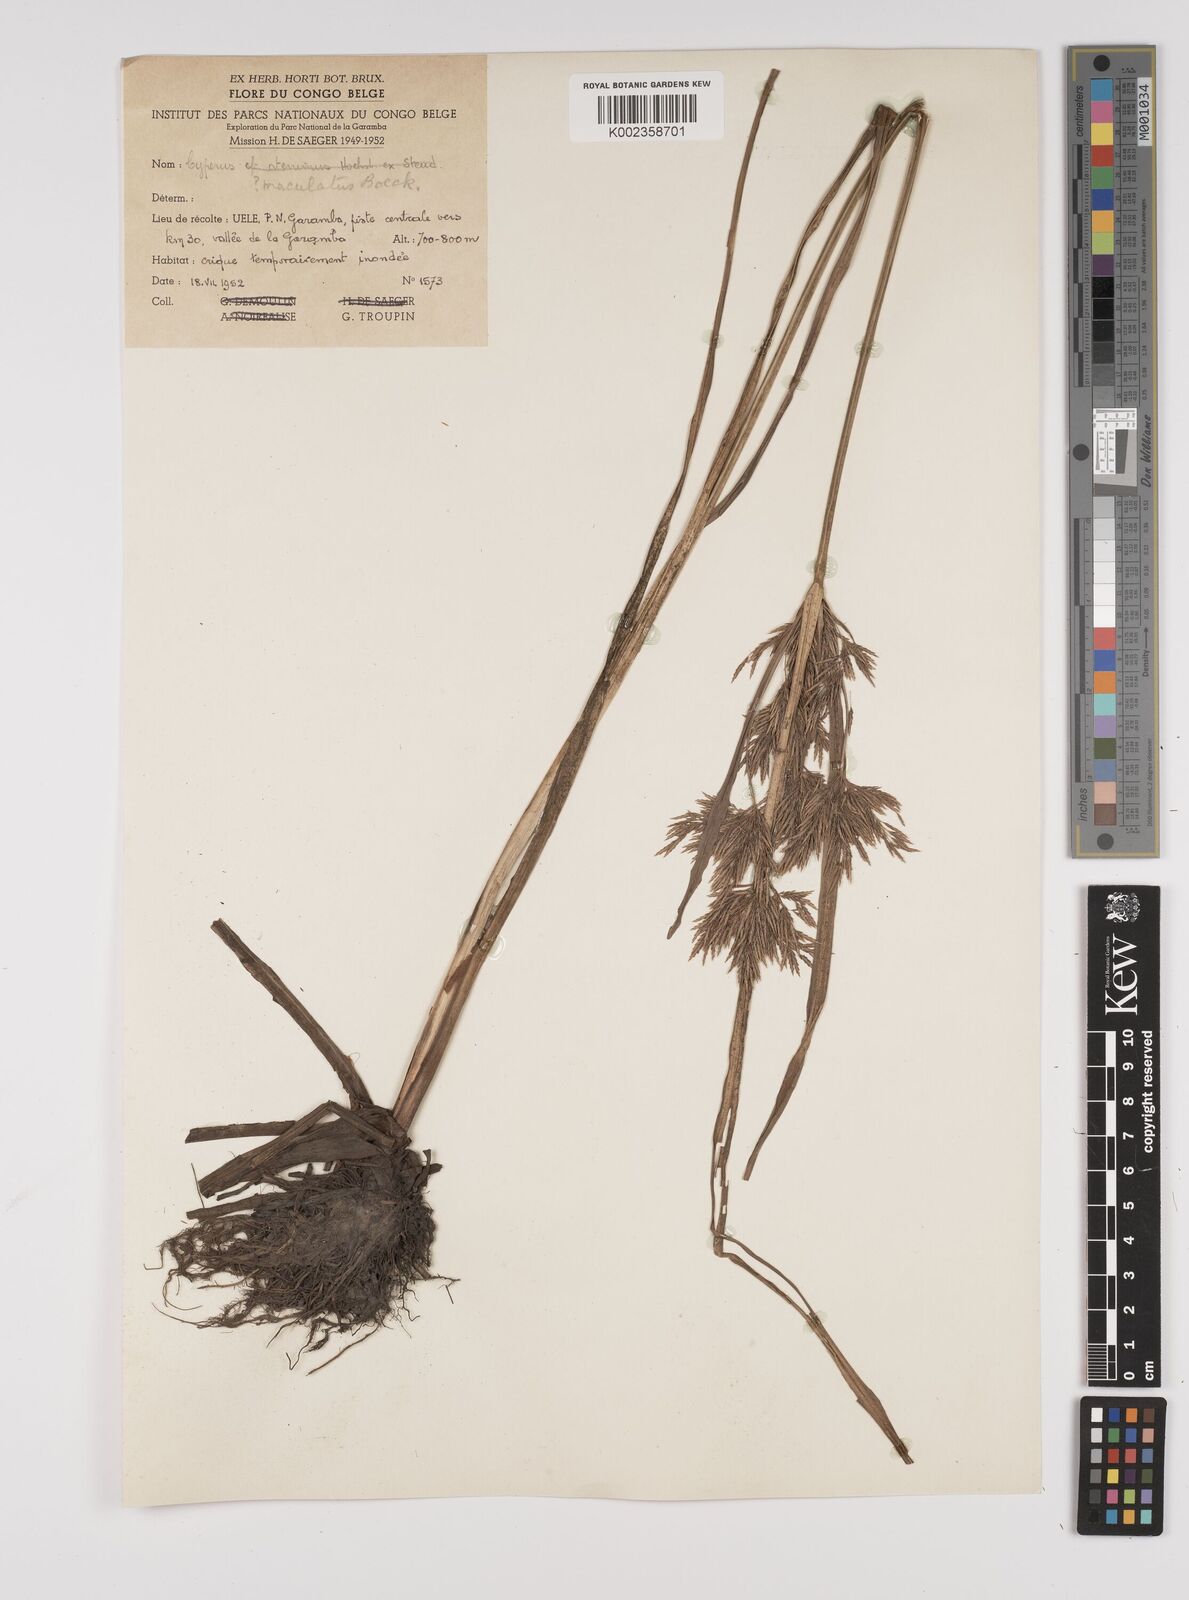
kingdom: Plantae
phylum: Tracheophyta
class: Liliopsida
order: Poales
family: Cyperaceae
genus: Cyperus
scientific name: Cyperus congensis
